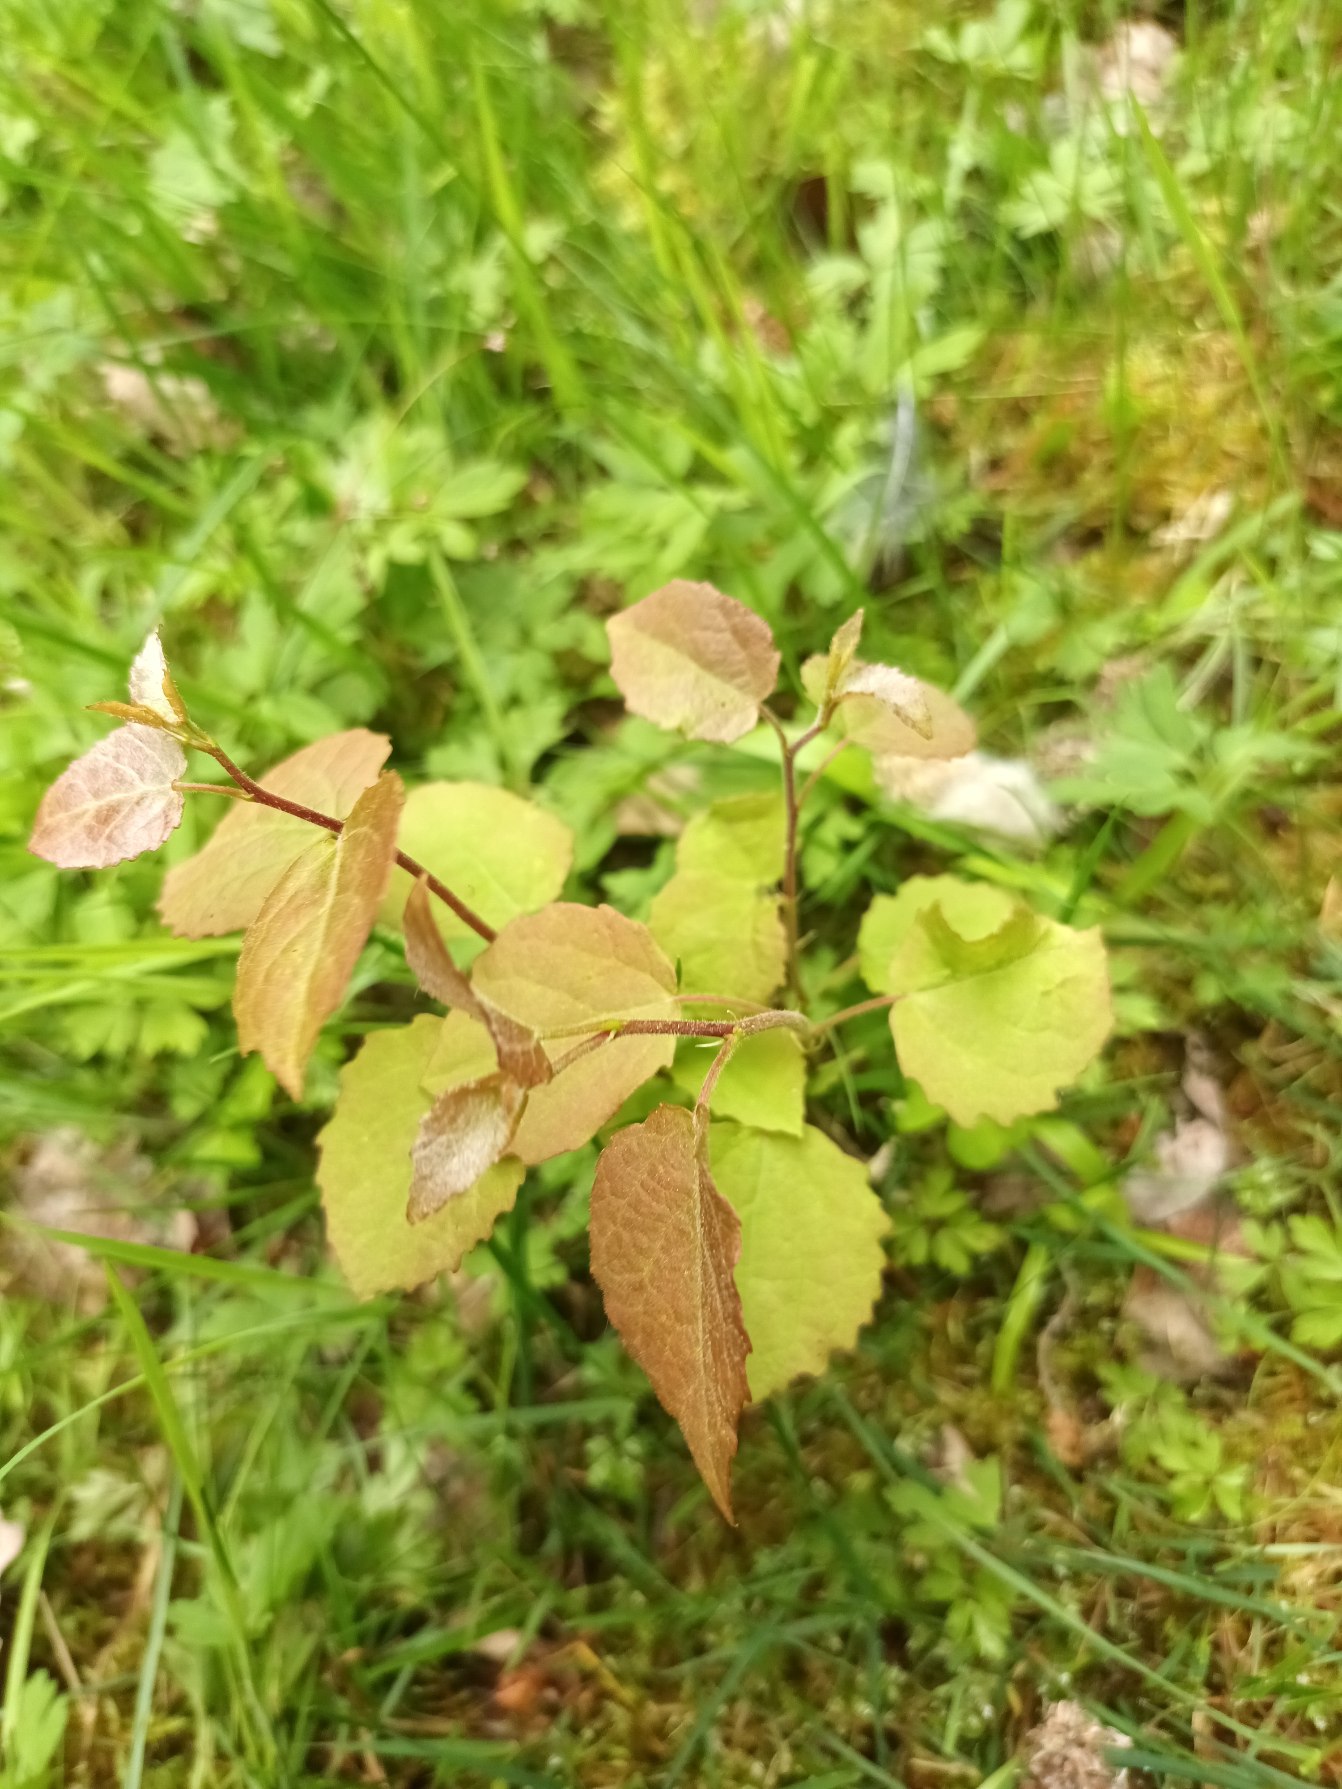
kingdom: Plantae
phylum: Tracheophyta
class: Magnoliopsida
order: Malpighiales
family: Salicaceae
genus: Populus
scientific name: Populus tremula
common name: Bævreasp
